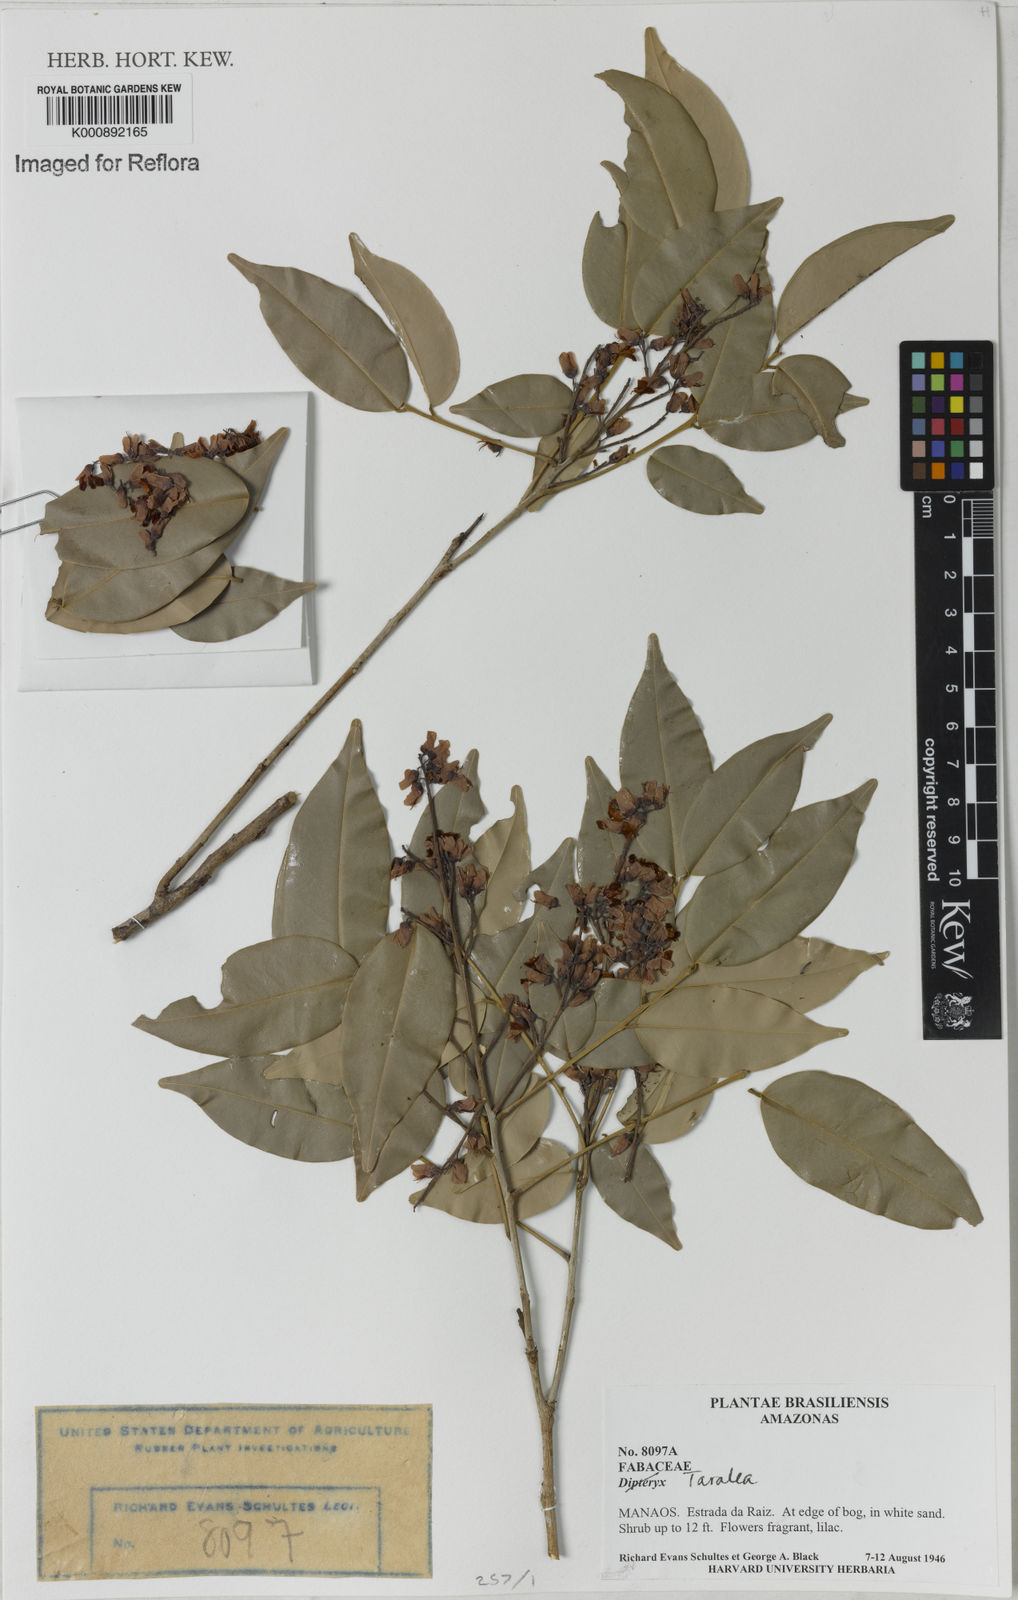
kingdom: Plantae
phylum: Tracheophyta
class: Magnoliopsida
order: Fabales
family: Fabaceae
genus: Taralea
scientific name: Taralea
